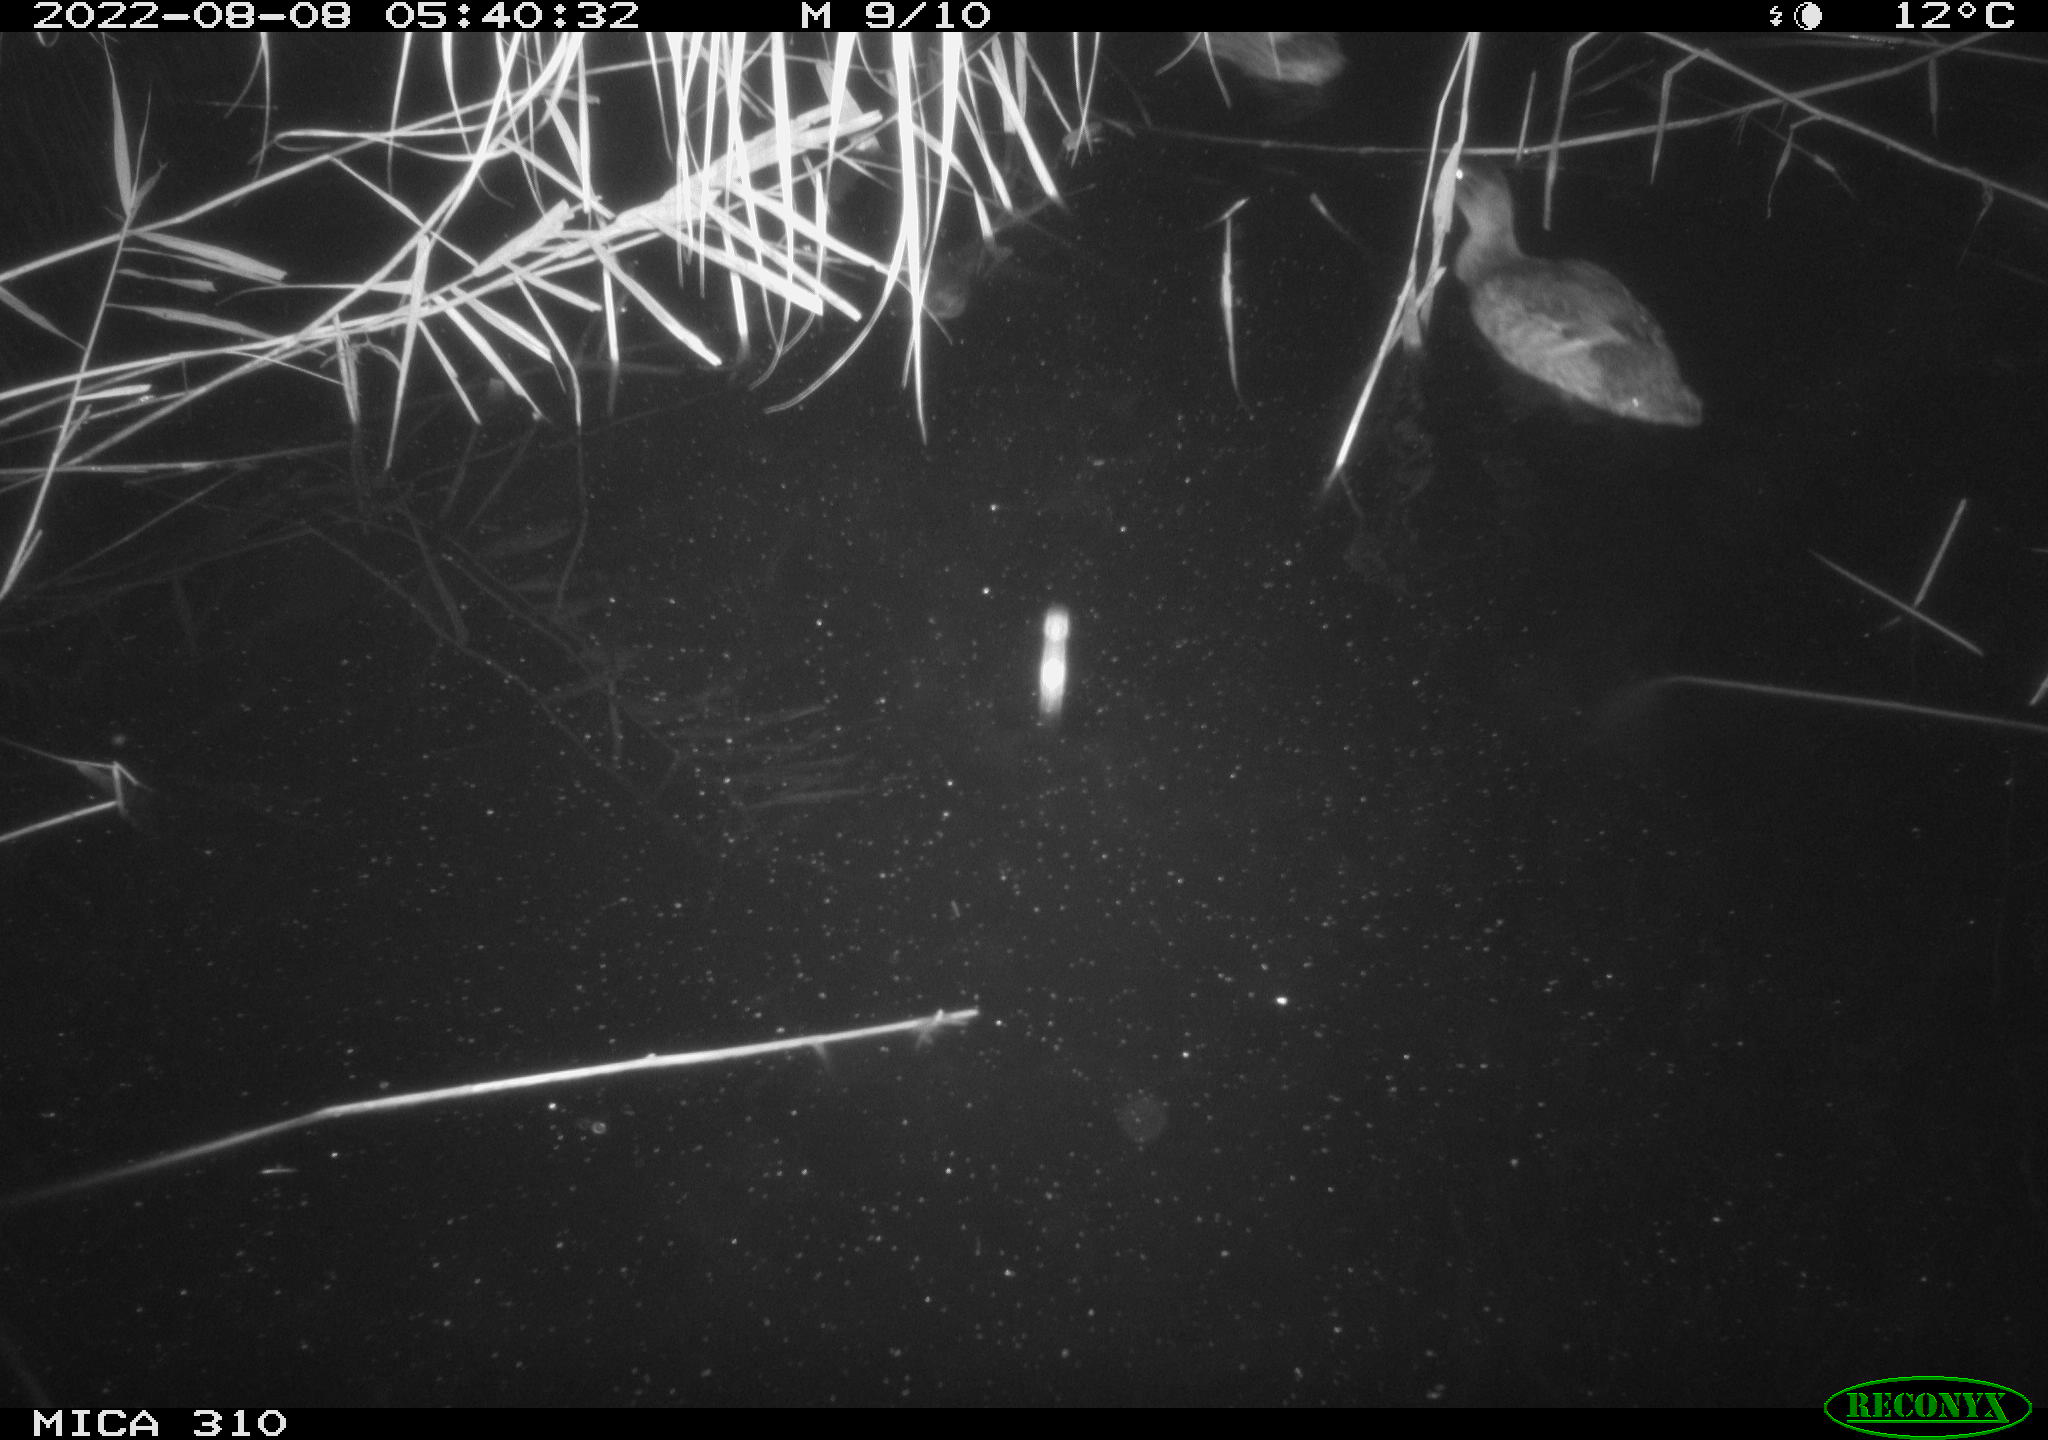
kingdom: Animalia
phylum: Chordata
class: Aves
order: Gruiformes
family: Rallidae
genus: Fulica
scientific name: Fulica atra
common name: Eurasian coot
